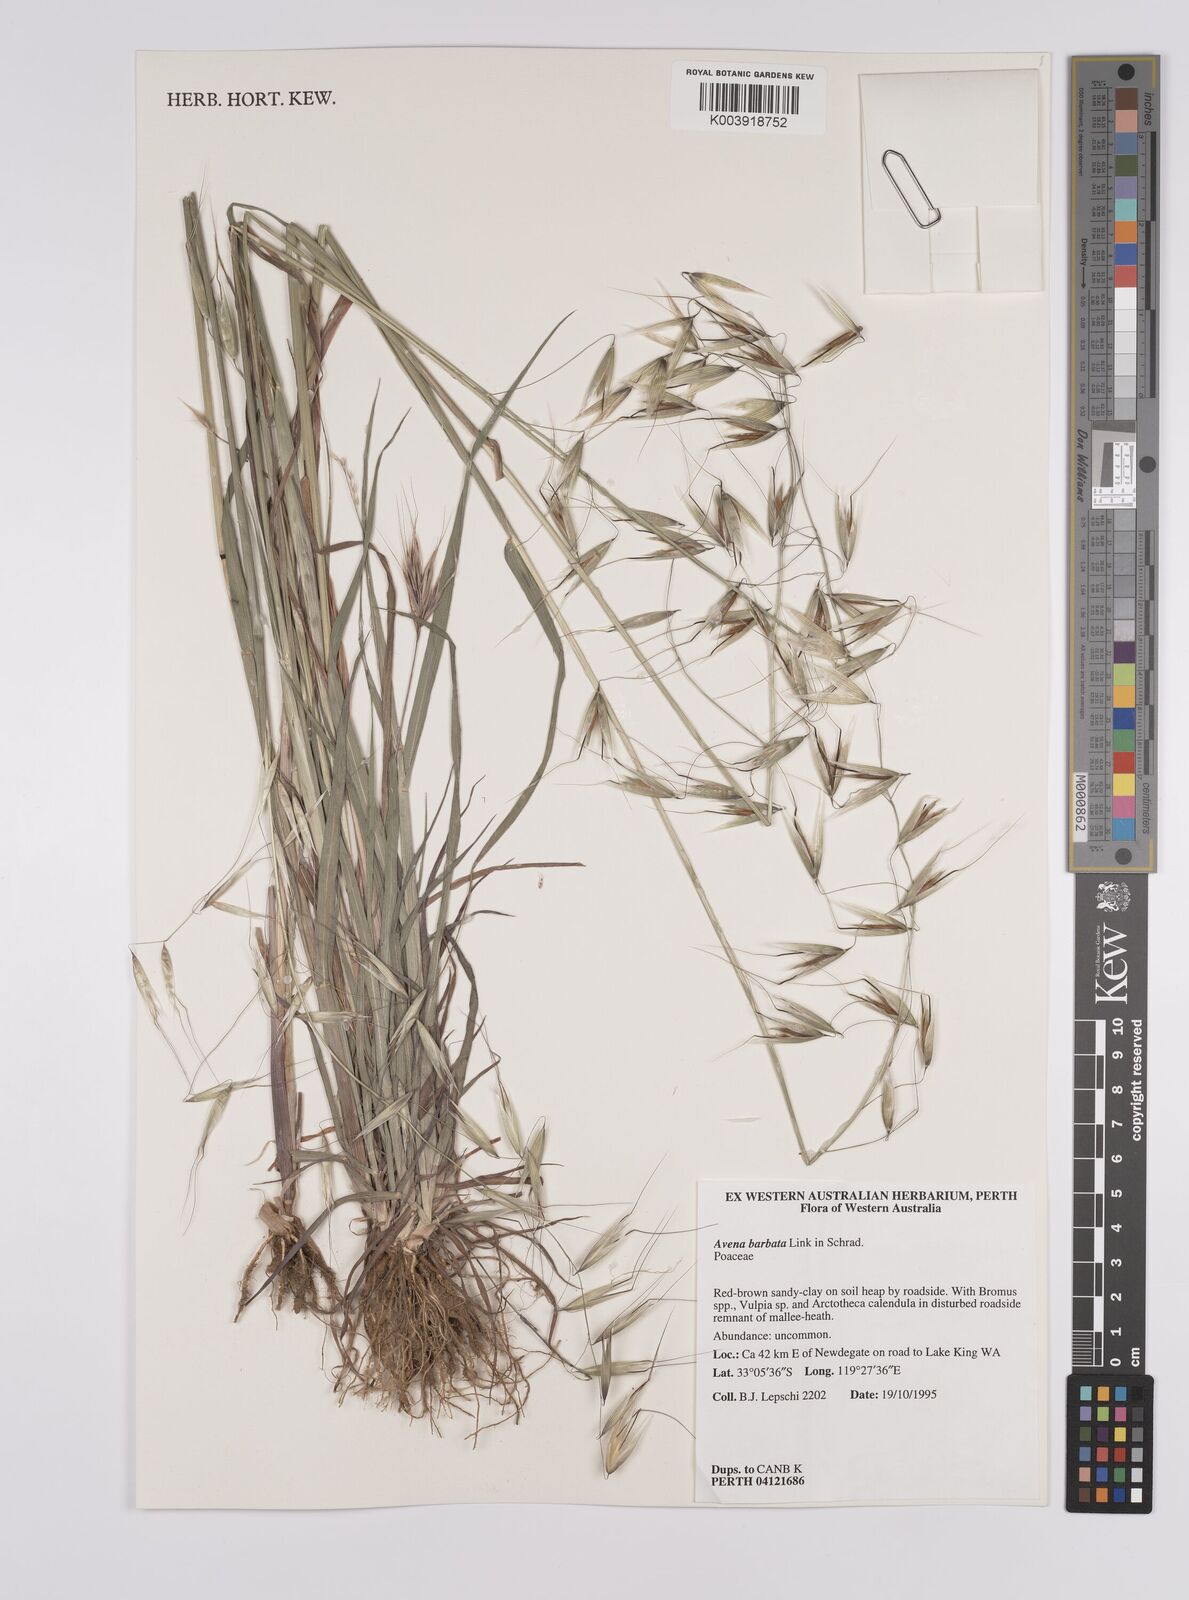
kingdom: Plantae
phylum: Tracheophyta
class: Liliopsida
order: Poales
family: Poaceae
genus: Avena
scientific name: Avena
